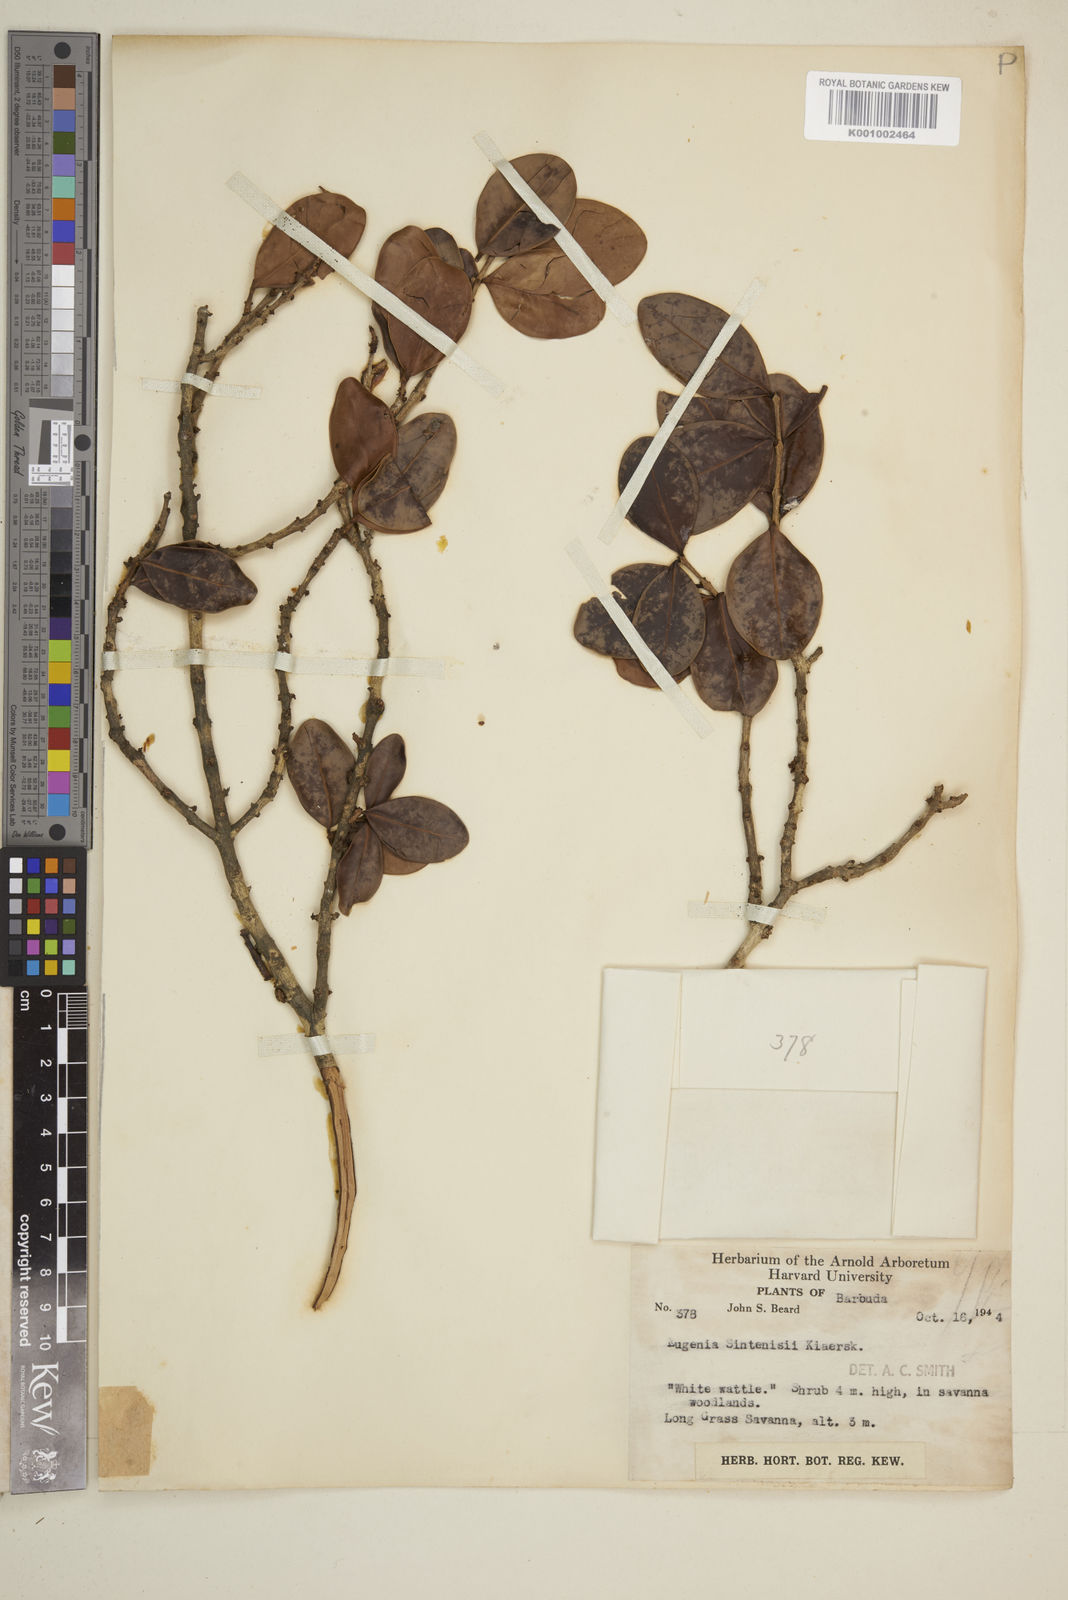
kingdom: Plantae
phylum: Tracheophyta
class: Magnoliopsida
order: Myrtales
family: Myrtaceae
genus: Eugenia
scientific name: Eugenia cordata
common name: Lathberry
